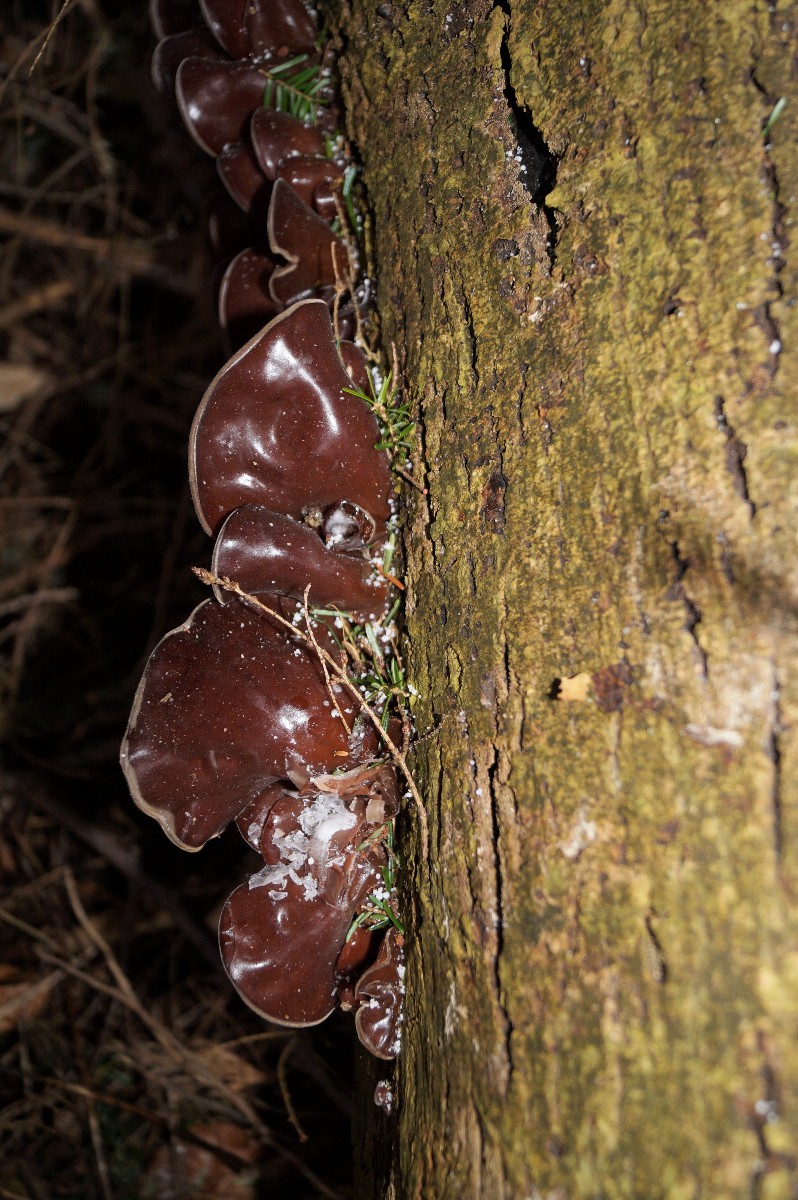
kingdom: Fungi
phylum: Basidiomycota
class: Agaricomycetes
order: Auriculariales
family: Auriculariaceae
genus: Auricularia
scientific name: Auricularia auricula-judae
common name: almindelig judasøre
